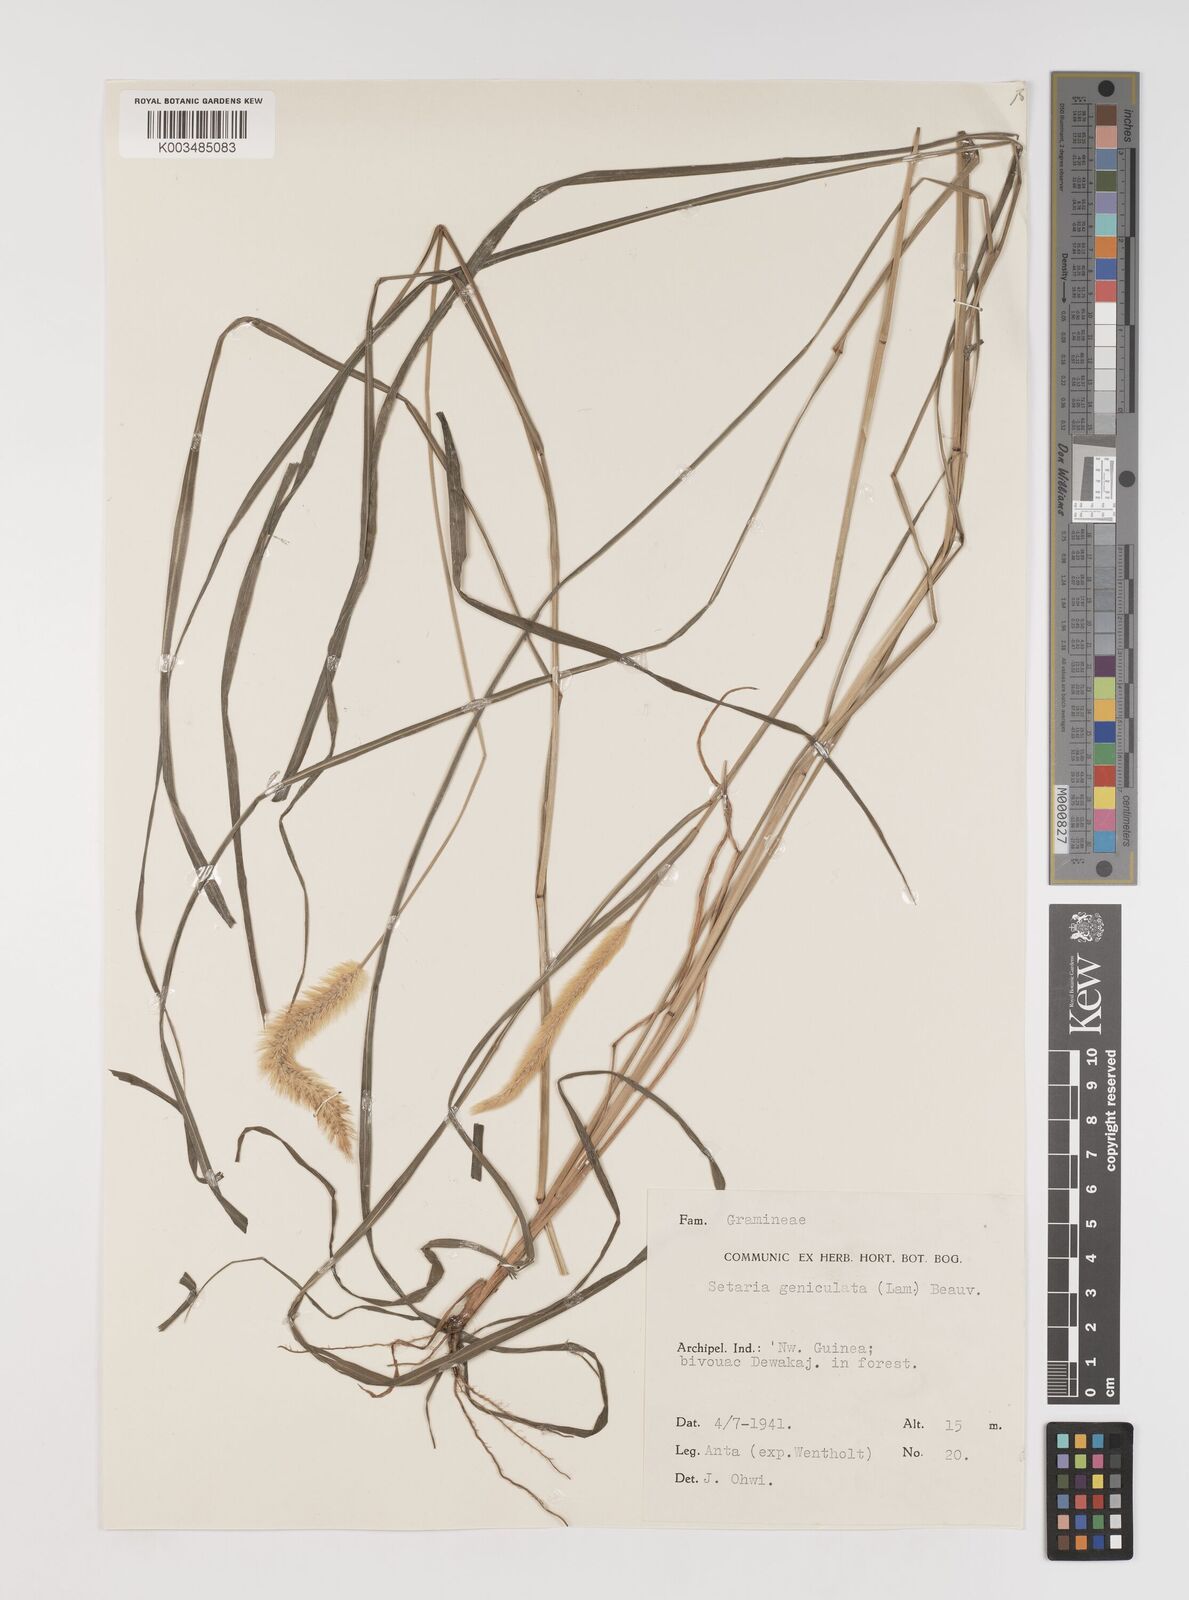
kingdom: Plantae
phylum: Tracheophyta
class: Liliopsida
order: Poales
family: Poaceae
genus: Setaria
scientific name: Setaria parviflora
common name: Knotroot bristle-grass
